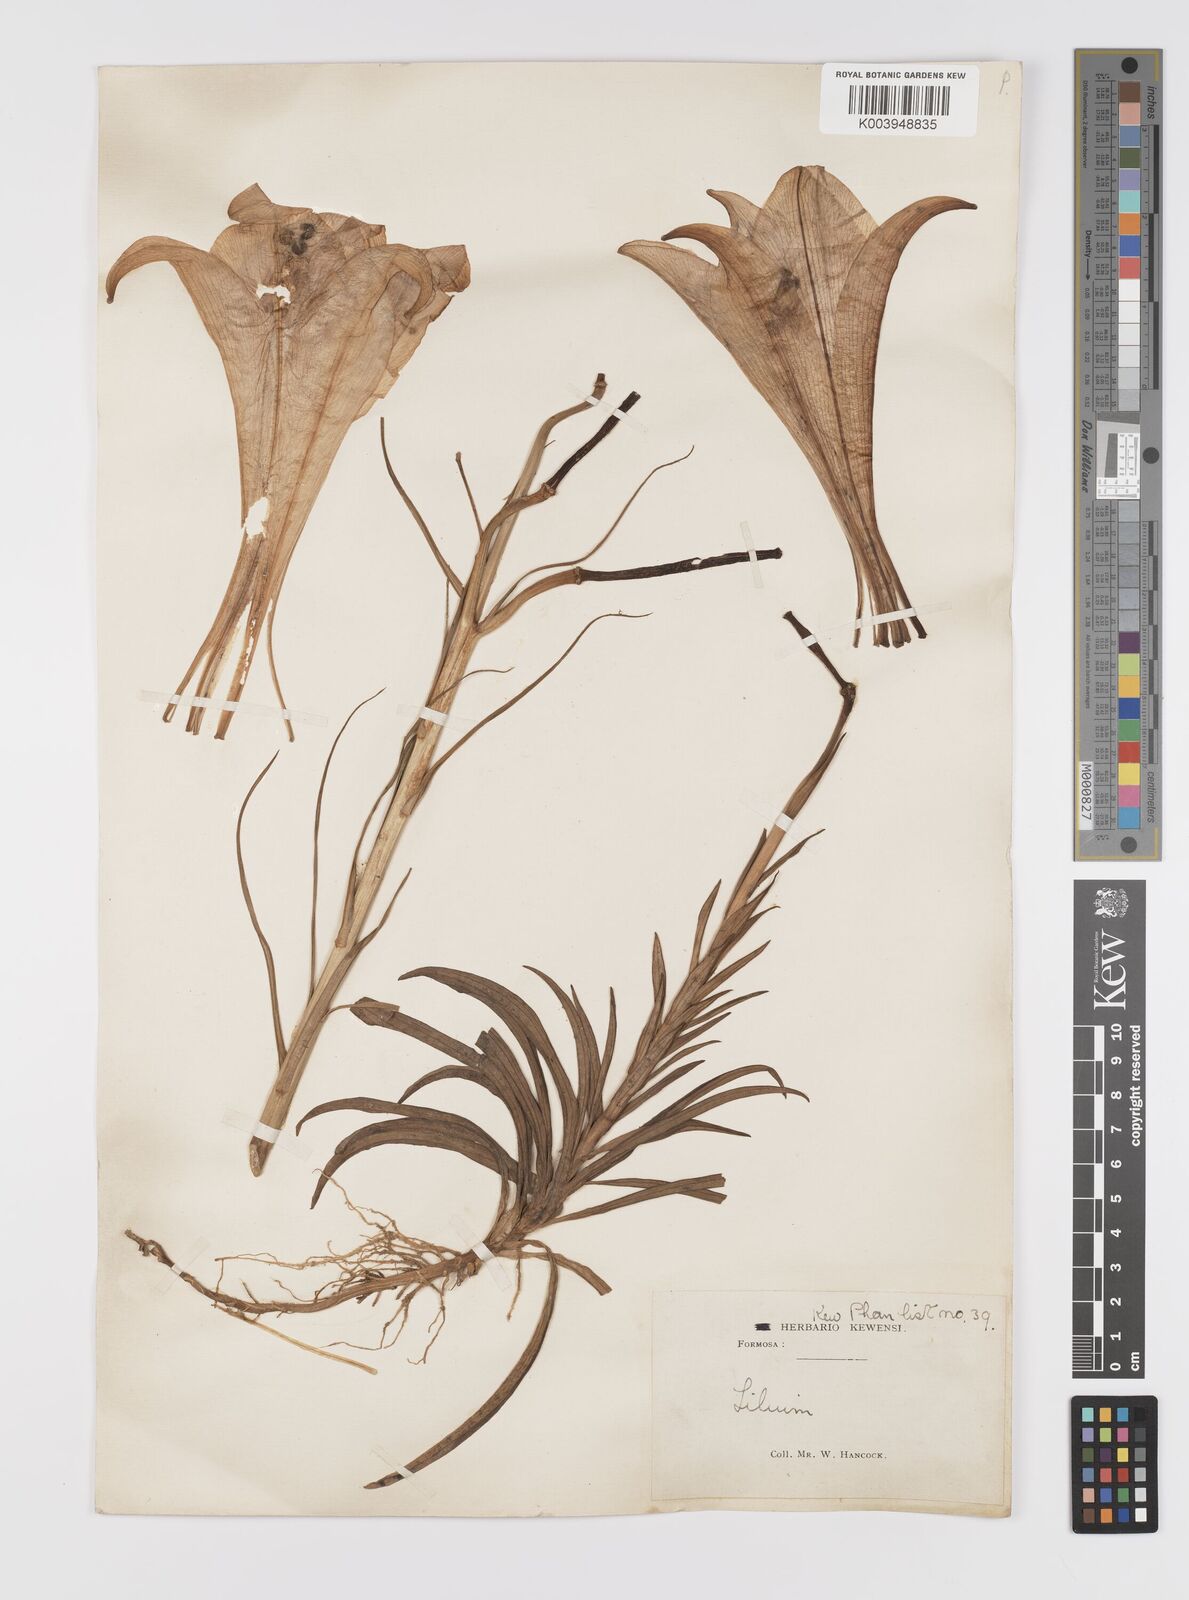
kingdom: Plantae
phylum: Tracheophyta
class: Liliopsida
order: Liliales
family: Liliaceae
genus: Lilium
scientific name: Lilium formosanum
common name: Formosa lily
